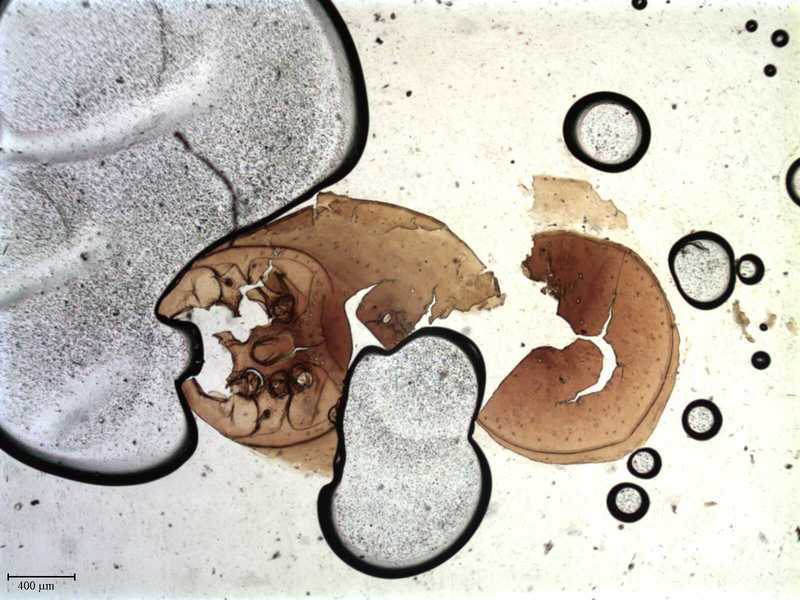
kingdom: Animalia
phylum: Arthropoda
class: Arachnida
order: Mesostigmata
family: Uropodidae
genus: Uropoda
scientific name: Uropoda
